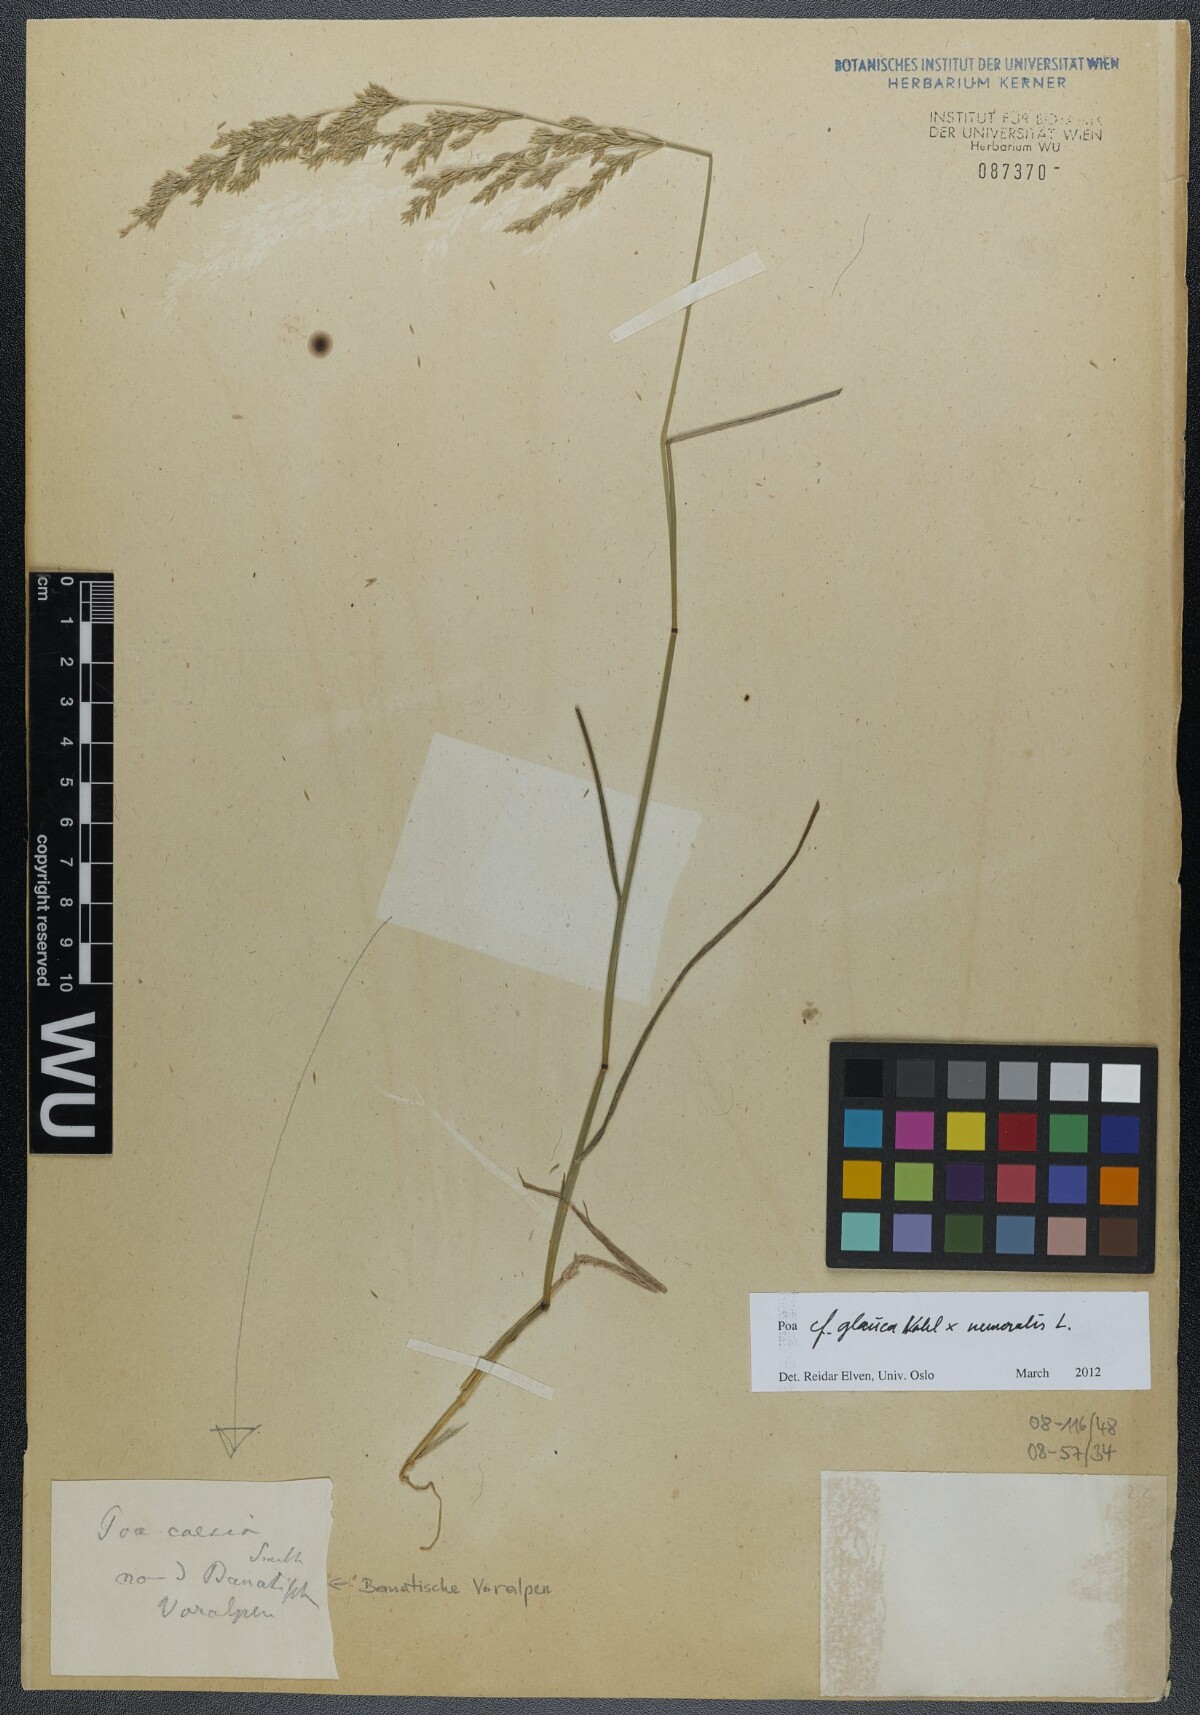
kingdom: Plantae
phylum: Tracheophyta
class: Liliopsida
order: Poales
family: Poaceae
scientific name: Poaceae
